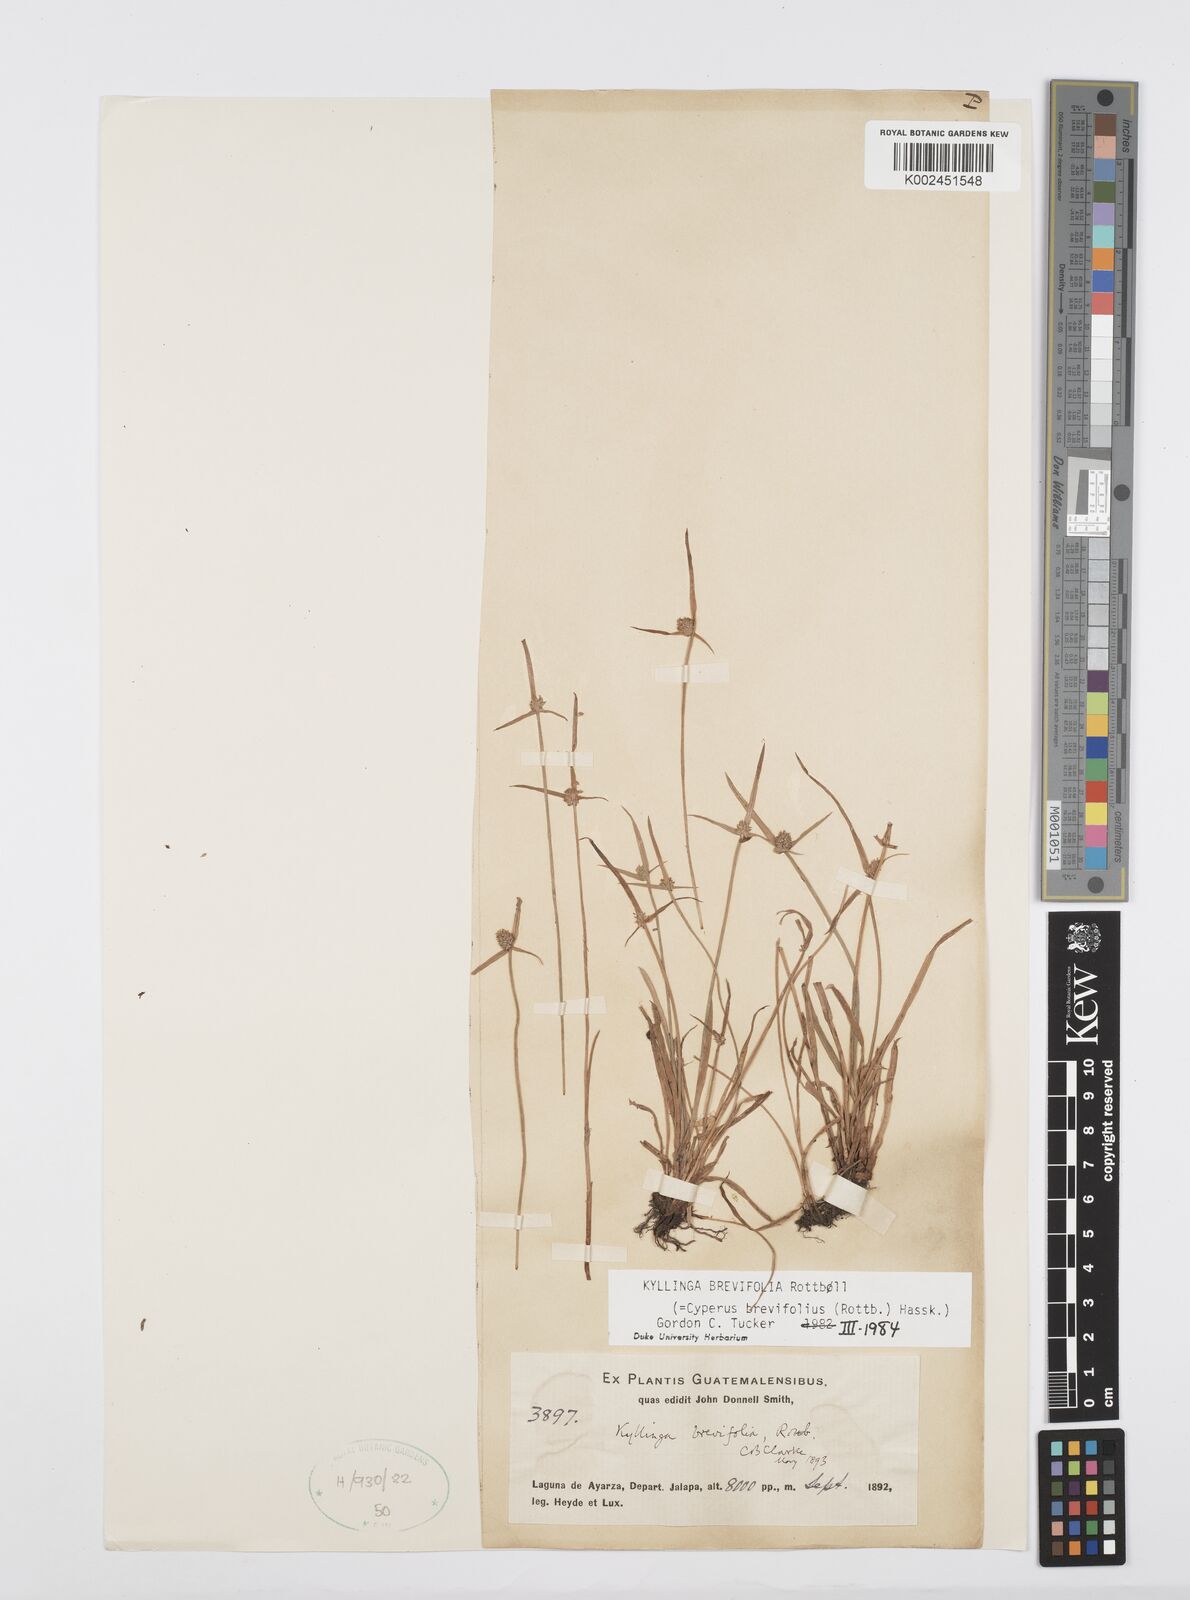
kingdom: Plantae
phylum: Tracheophyta
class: Liliopsida
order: Poales
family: Cyperaceae
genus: Cyperus
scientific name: Cyperus brevifolius
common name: Globe kyllinga
